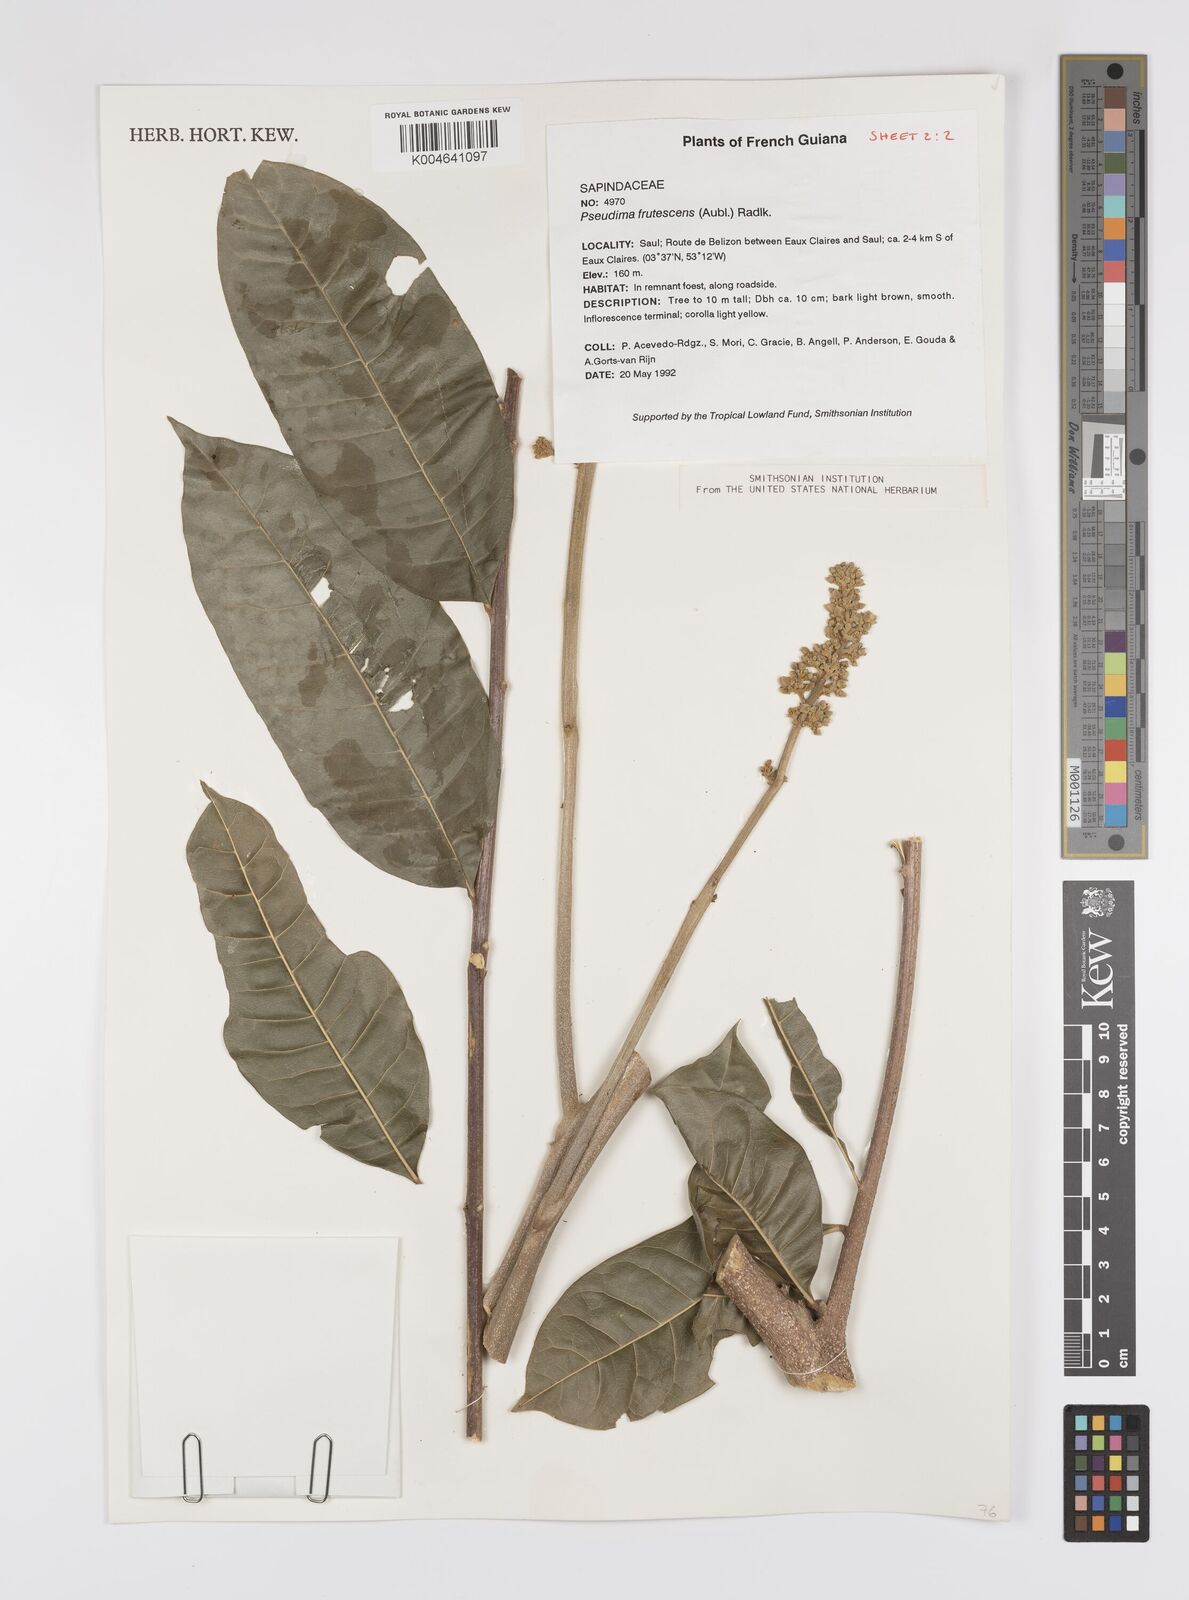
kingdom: Plantae
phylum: Tracheophyta
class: Magnoliopsida
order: Sapindales
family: Sapindaceae
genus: Pseudima
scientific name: Pseudima frutescens
